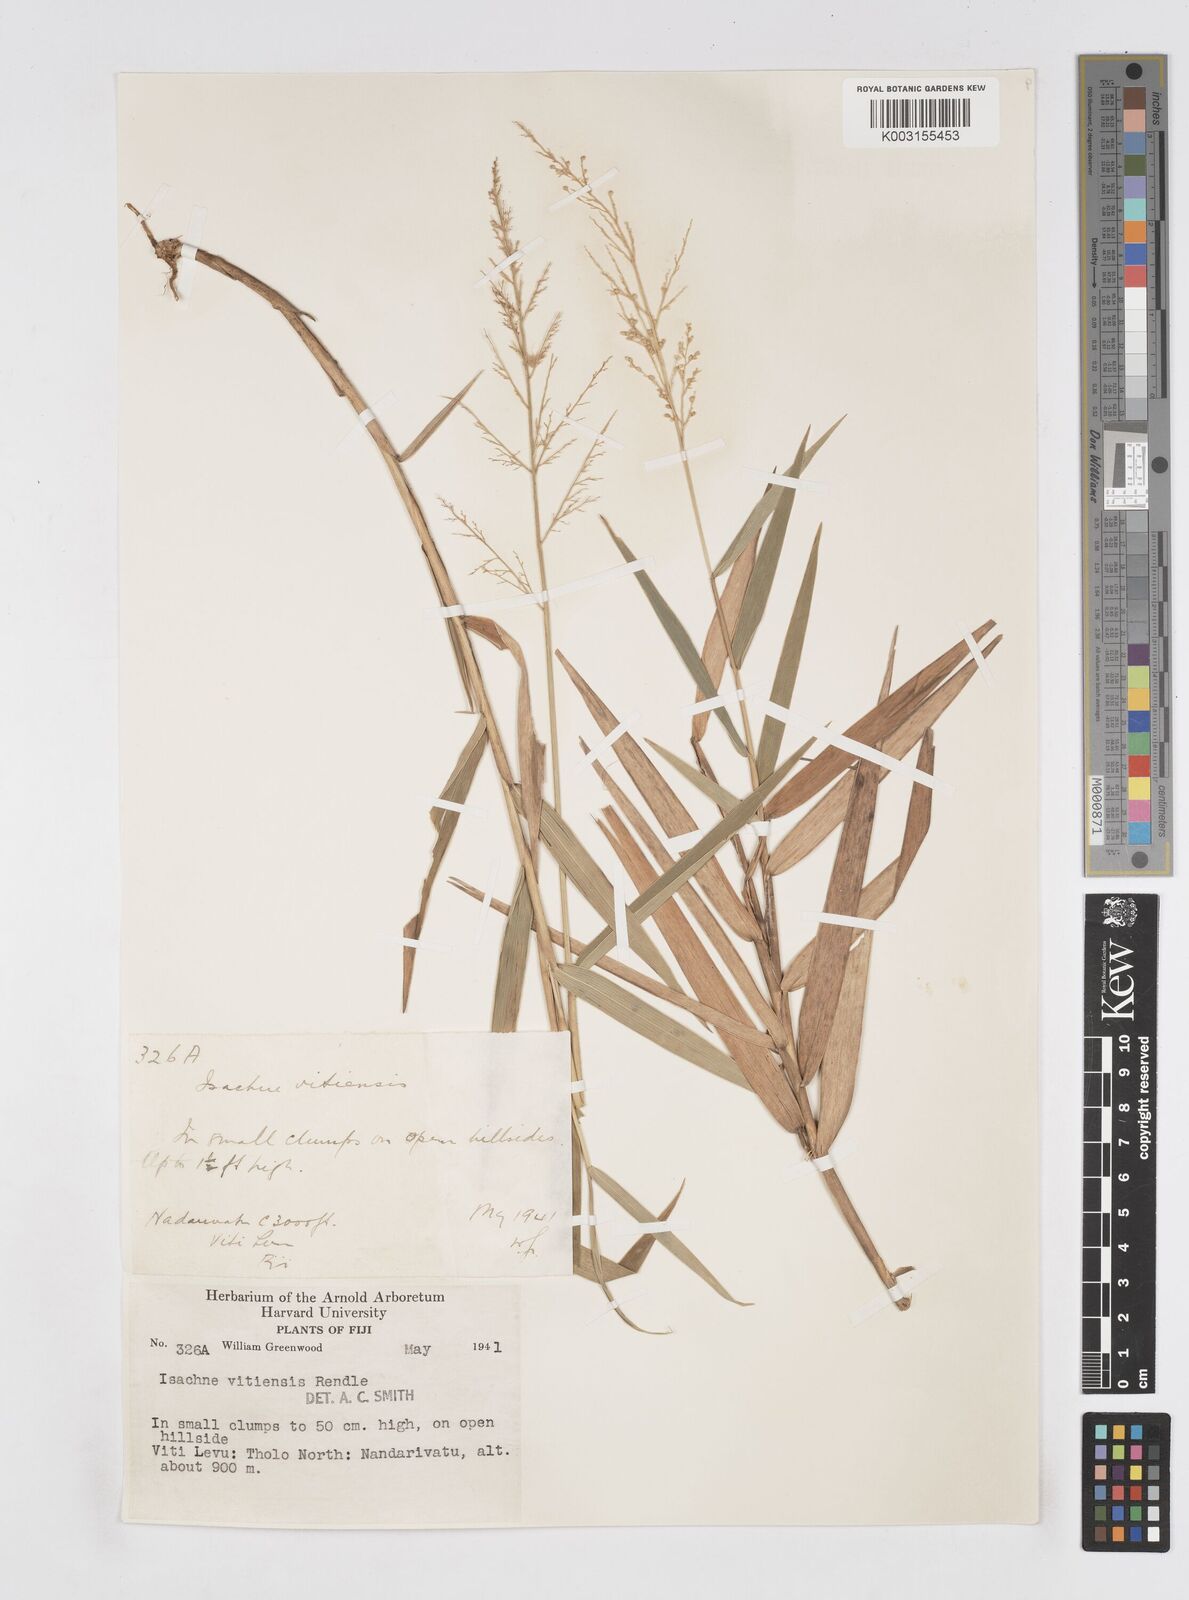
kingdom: Plantae
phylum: Tracheophyta
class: Liliopsida
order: Poales
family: Poaceae
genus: Isachne
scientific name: Isachne vitiensis
